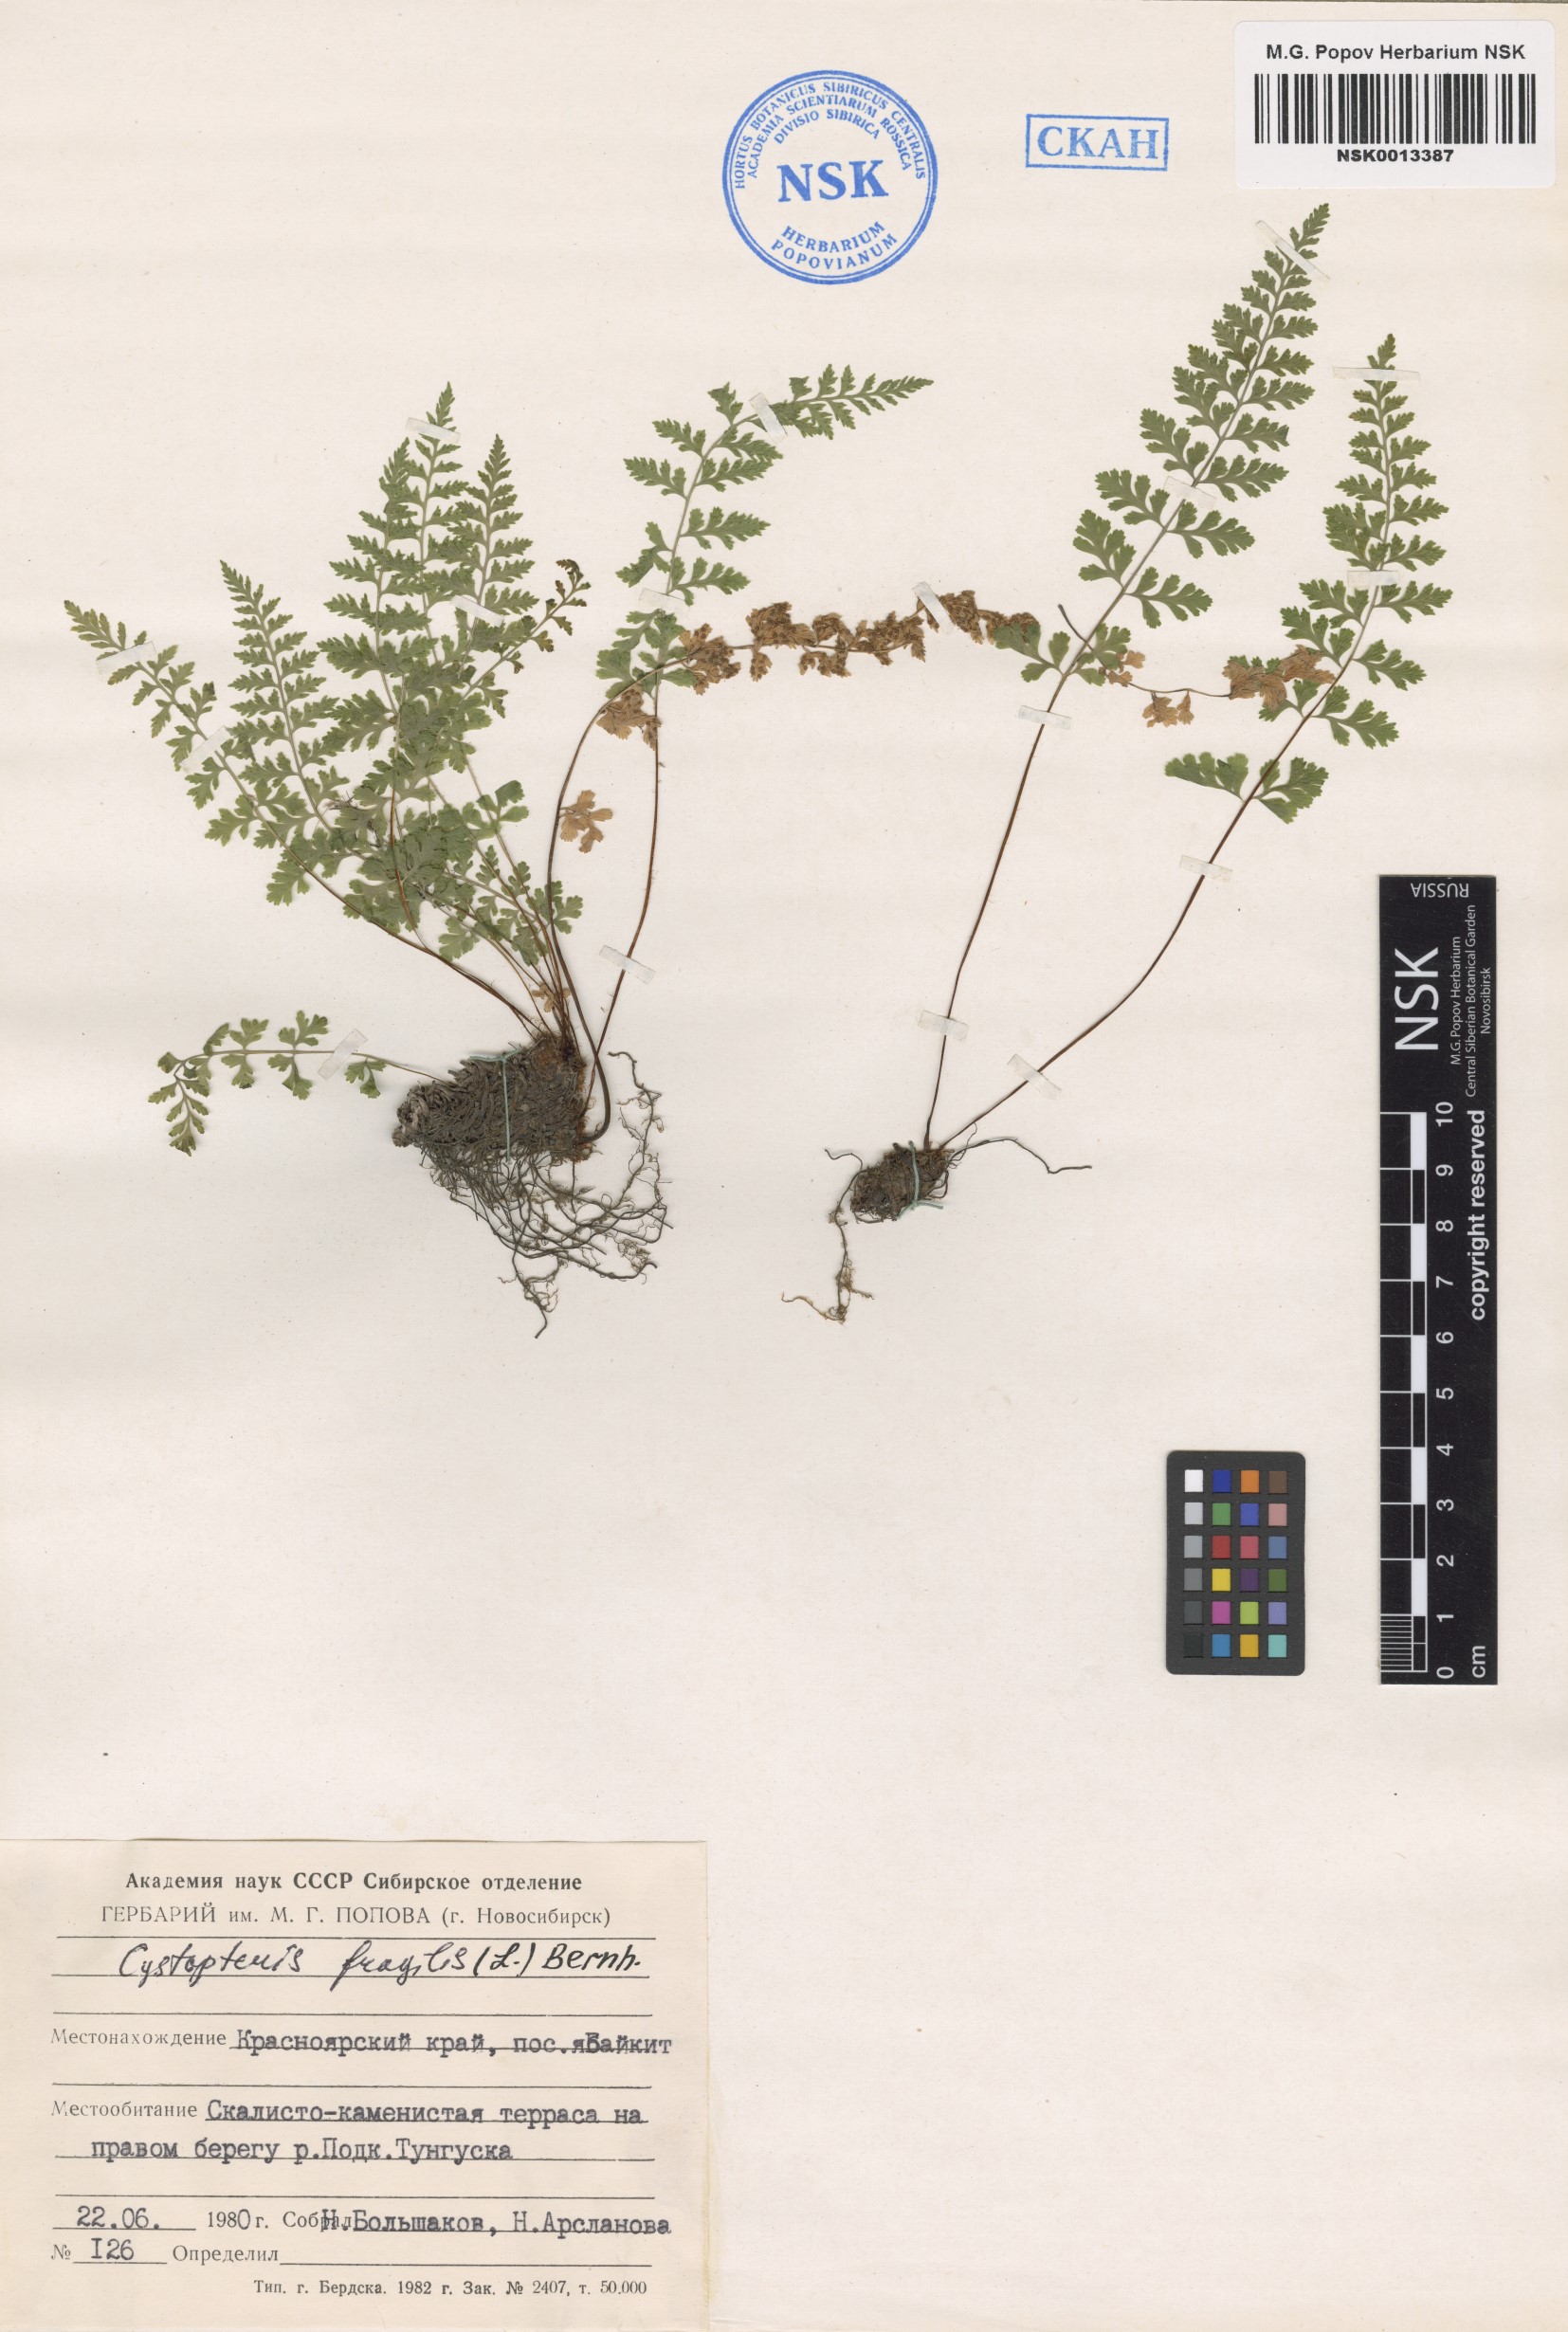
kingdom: Plantae
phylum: Tracheophyta
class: Polypodiopsida
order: Polypodiales
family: Cystopteridaceae
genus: Cystopteris
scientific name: Cystopteris fragilis
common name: Brittle bladder fern
